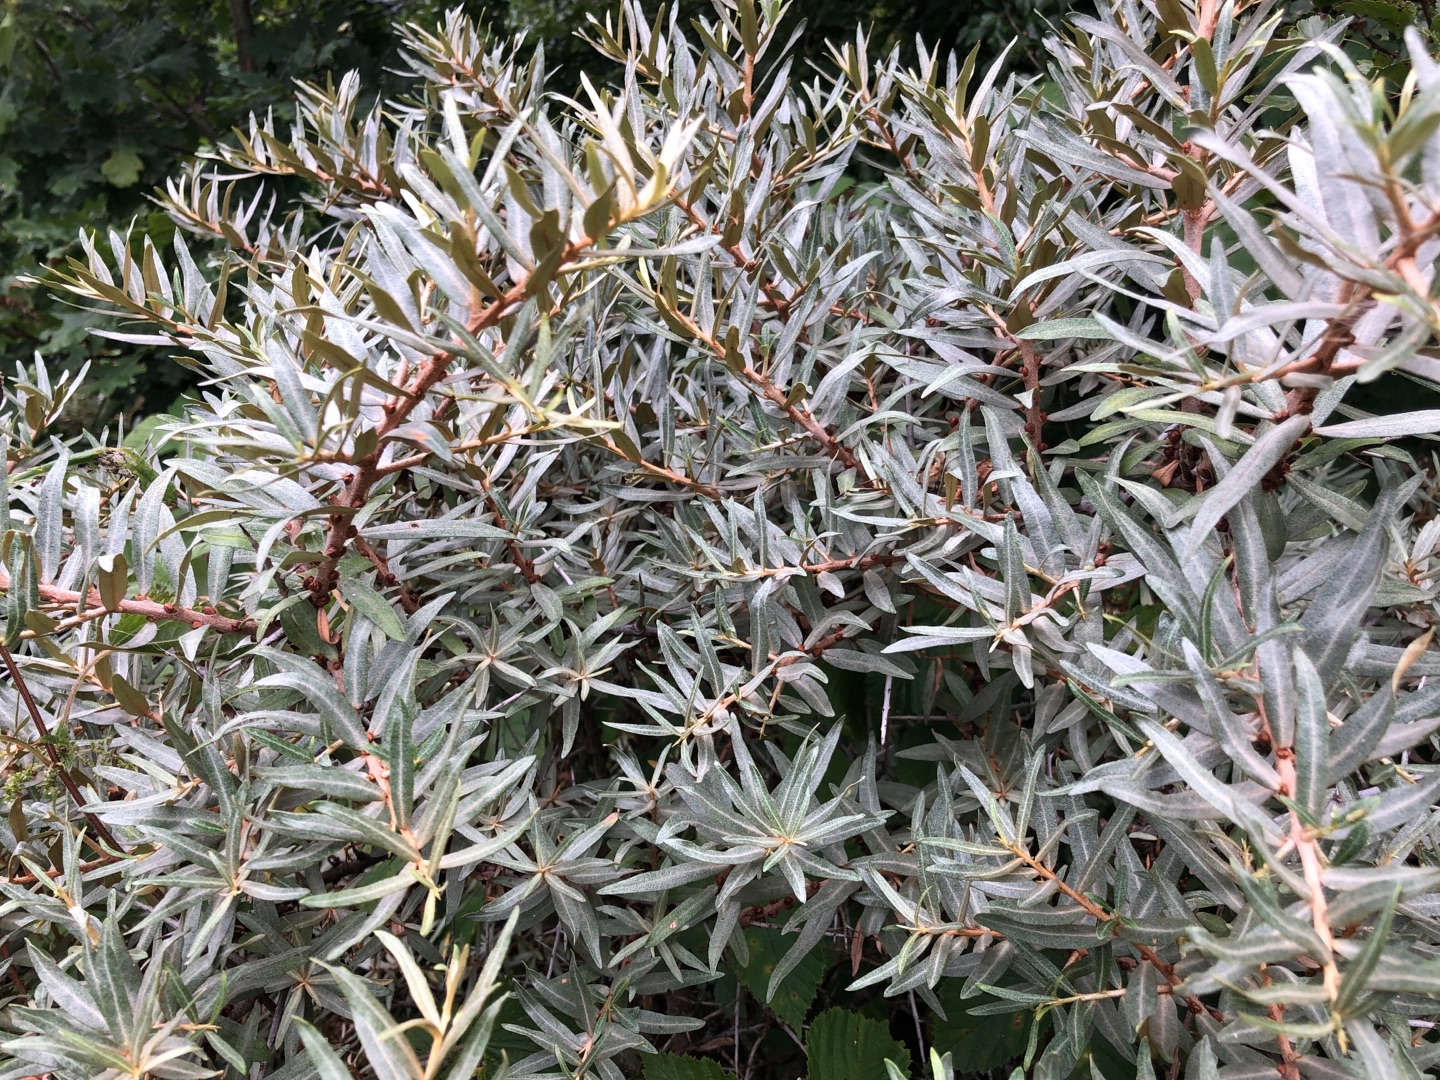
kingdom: Plantae
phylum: Tracheophyta
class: Magnoliopsida
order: Rosales
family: Elaeagnaceae
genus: Hippophae
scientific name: Hippophae rhamnoides
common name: Havtorn
